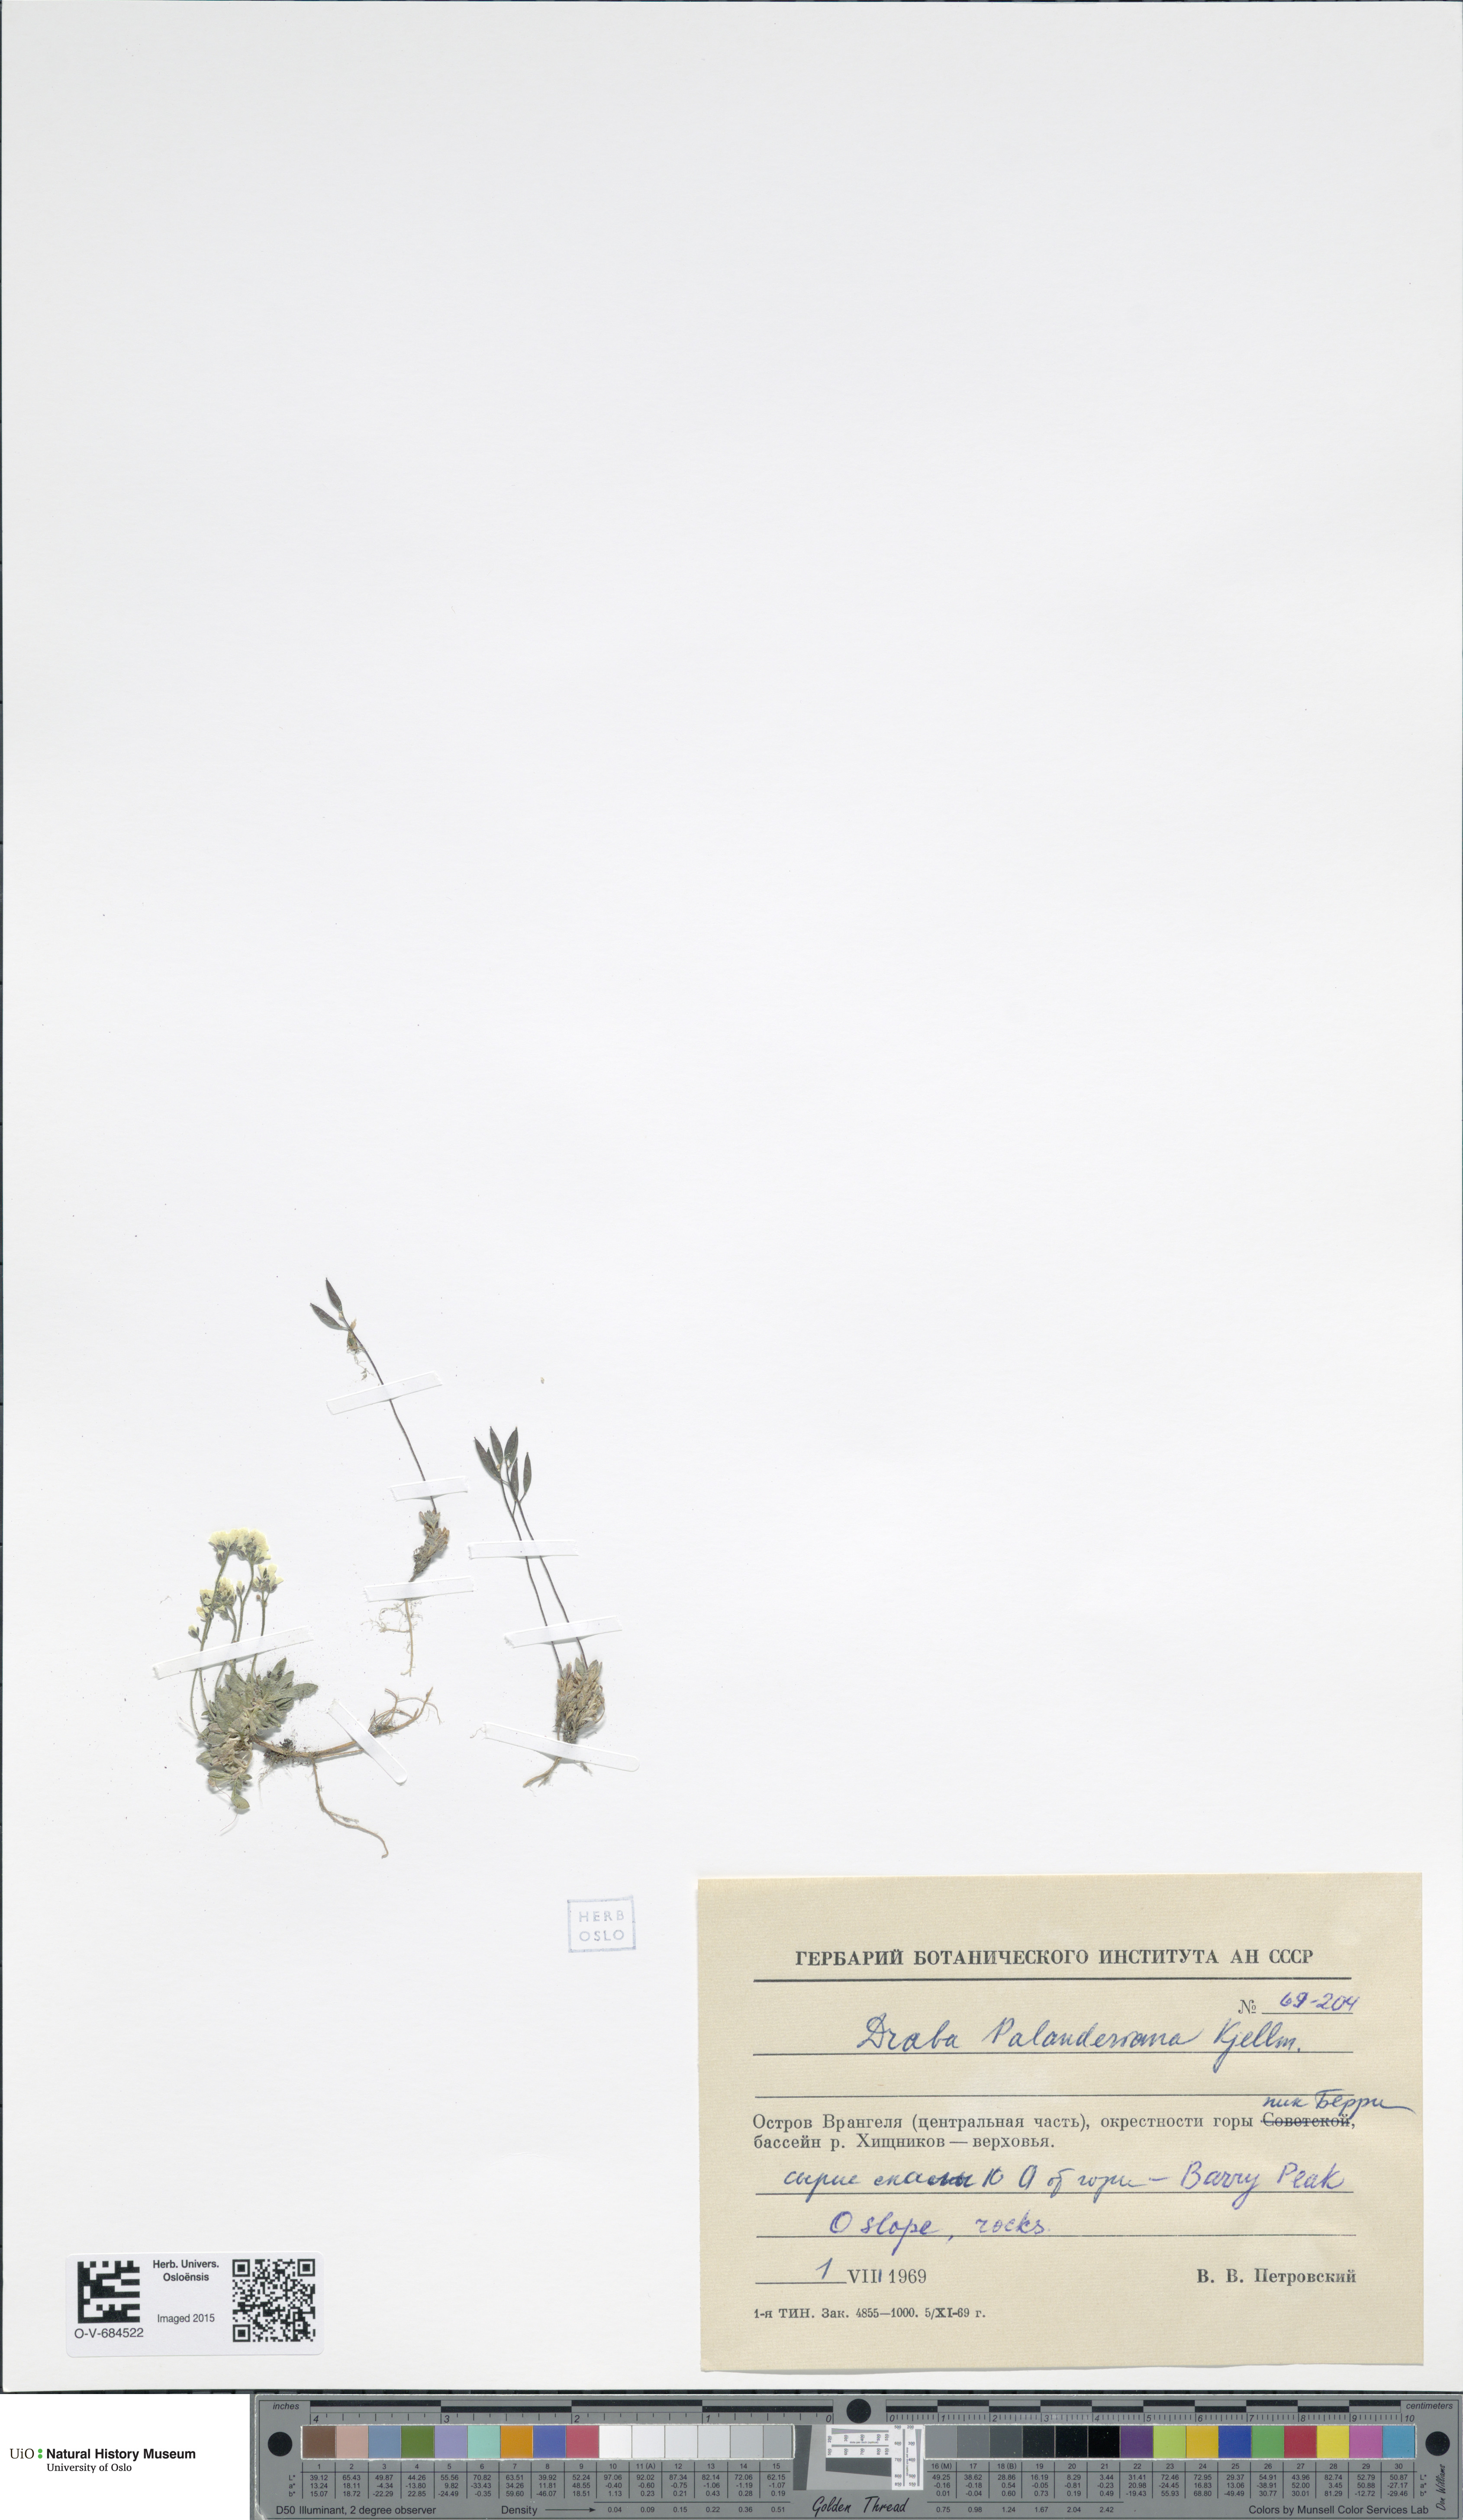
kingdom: Plantae
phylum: Tracheophyta
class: Magnoliopsida
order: Brassicales
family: Brassicaceae
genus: Draba
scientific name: Draba palanderiana
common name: Palander's draba
